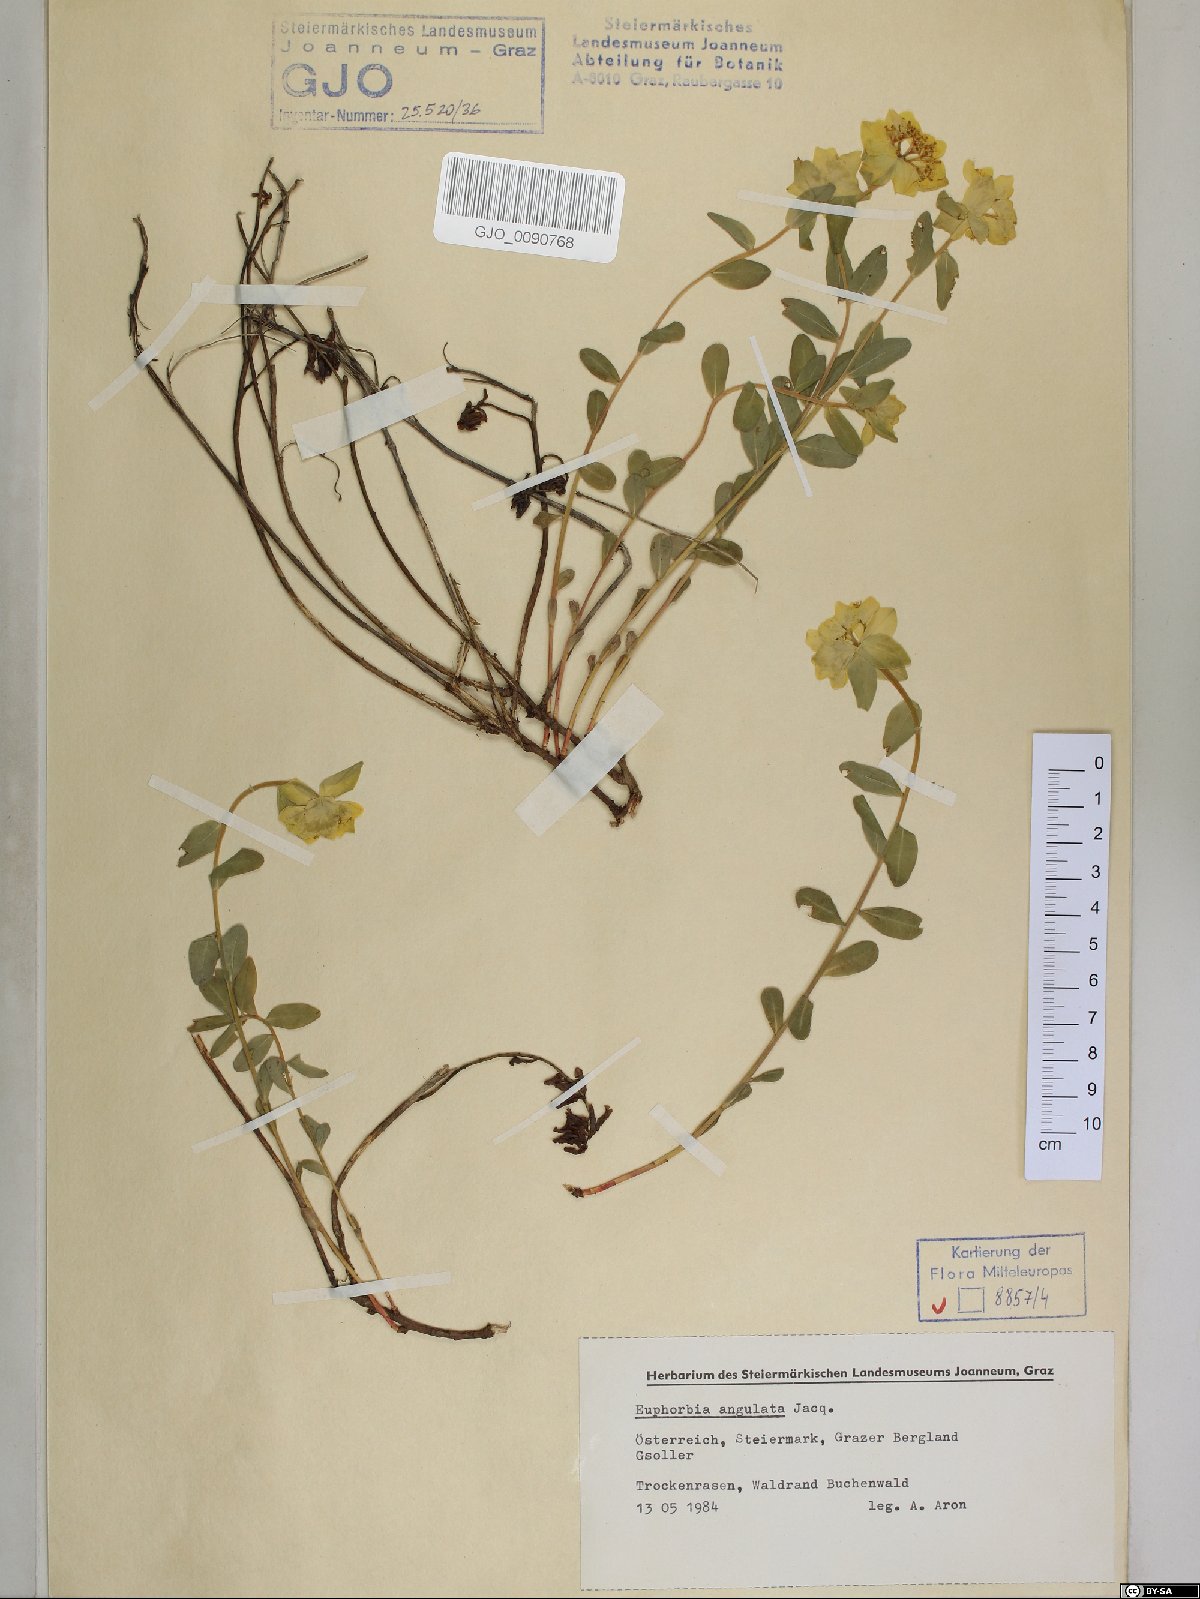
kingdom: Plantae
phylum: Tracheophyta
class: Magnoliopsida
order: Malpighiales
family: Euphorbiaceae
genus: Euphorbia
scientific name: Euphorbia verrucosa
